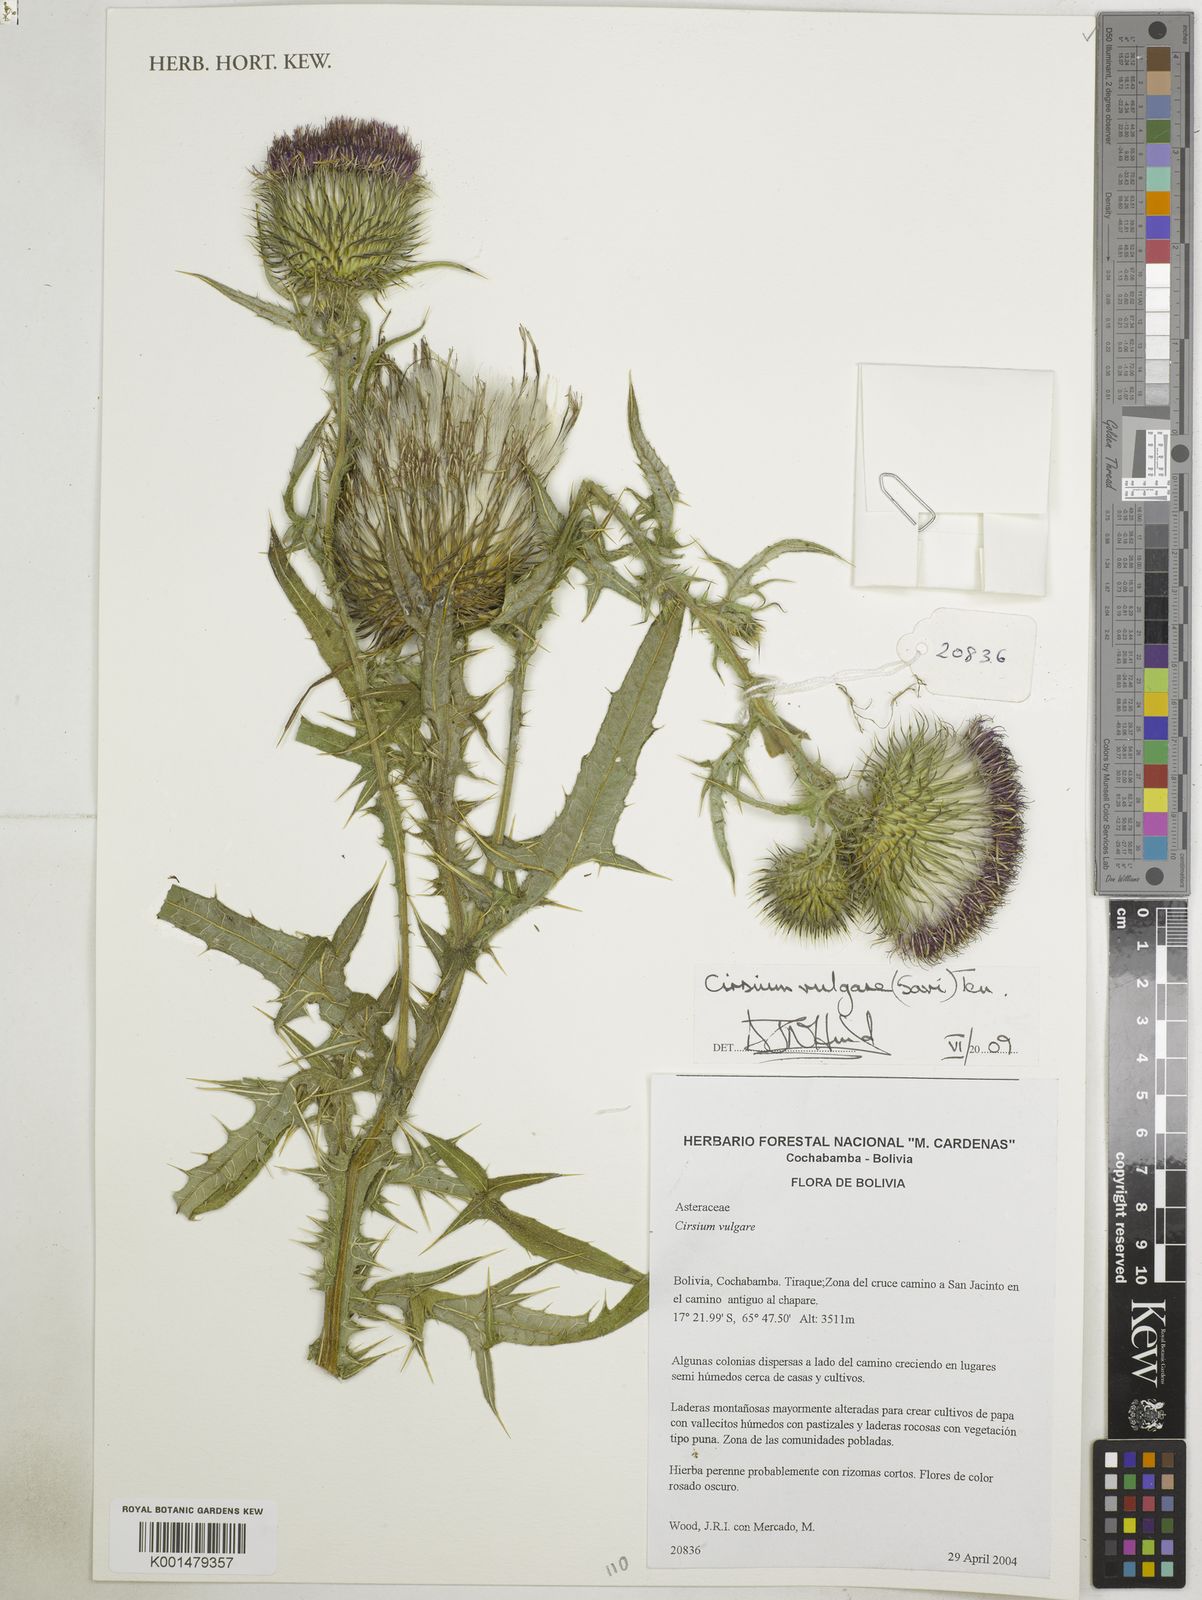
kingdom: Plantae
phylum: Tracheophyta
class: Magnoliopsida
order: Asterales
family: Asteraceae
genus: Cirsium
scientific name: Cirsium vulgare
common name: Bull thistle
